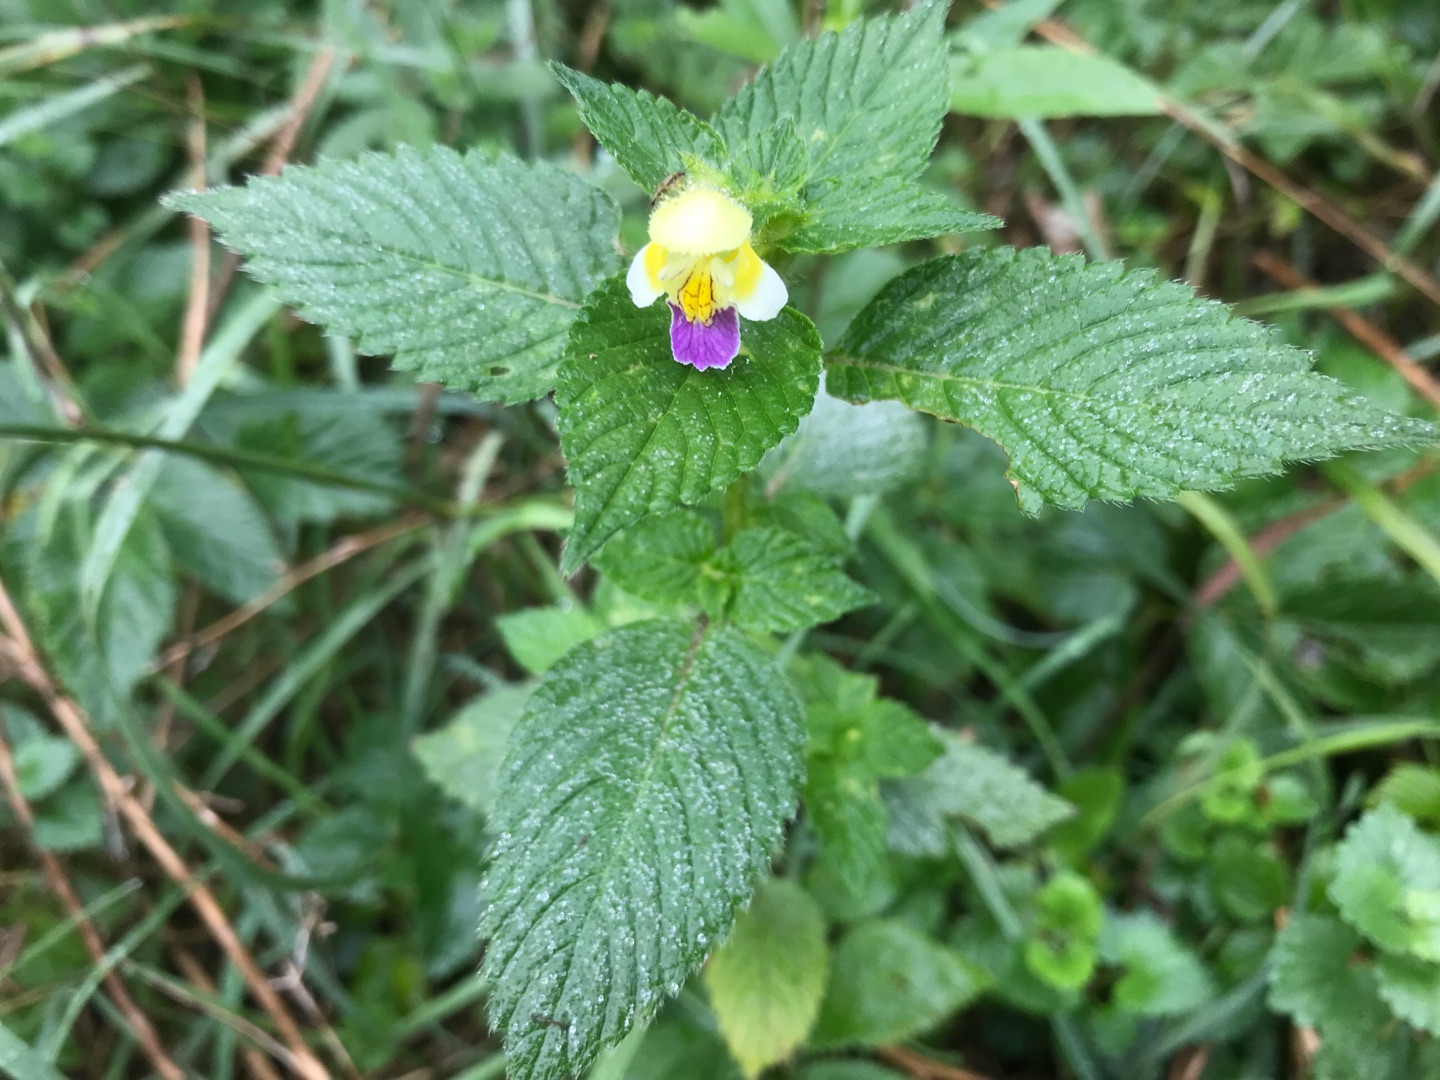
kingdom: Plantae
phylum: Tracheophyta
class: Magnoliopsida
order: Lamiales
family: Lamiaceae
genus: Galeopsis
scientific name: Galeopsis speciosa
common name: Hamp-hanekro
